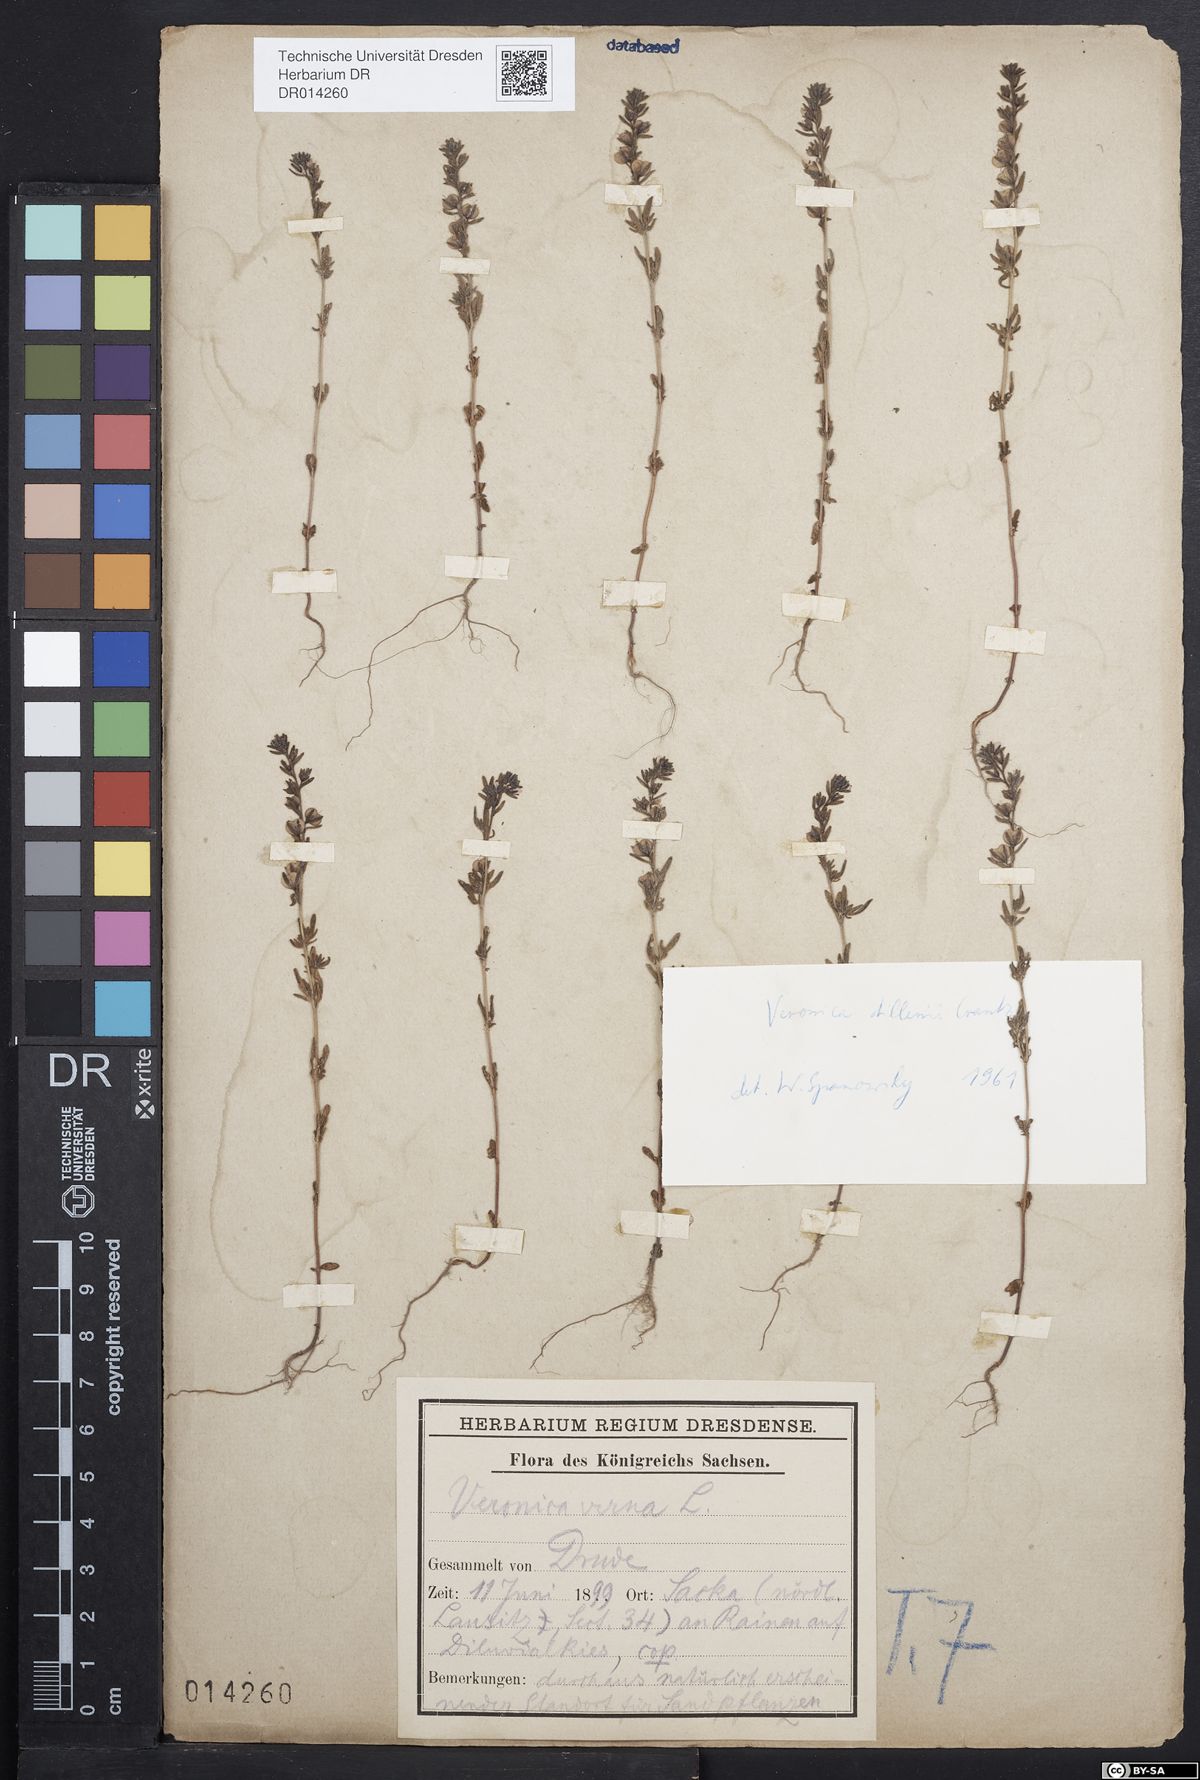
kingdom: Plantae
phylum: Tracheophyta
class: Magnoliopsida
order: Lamiales
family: Plantaginaceae
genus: Veronica
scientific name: Veronica dillenii
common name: Dillenius' speedwell
